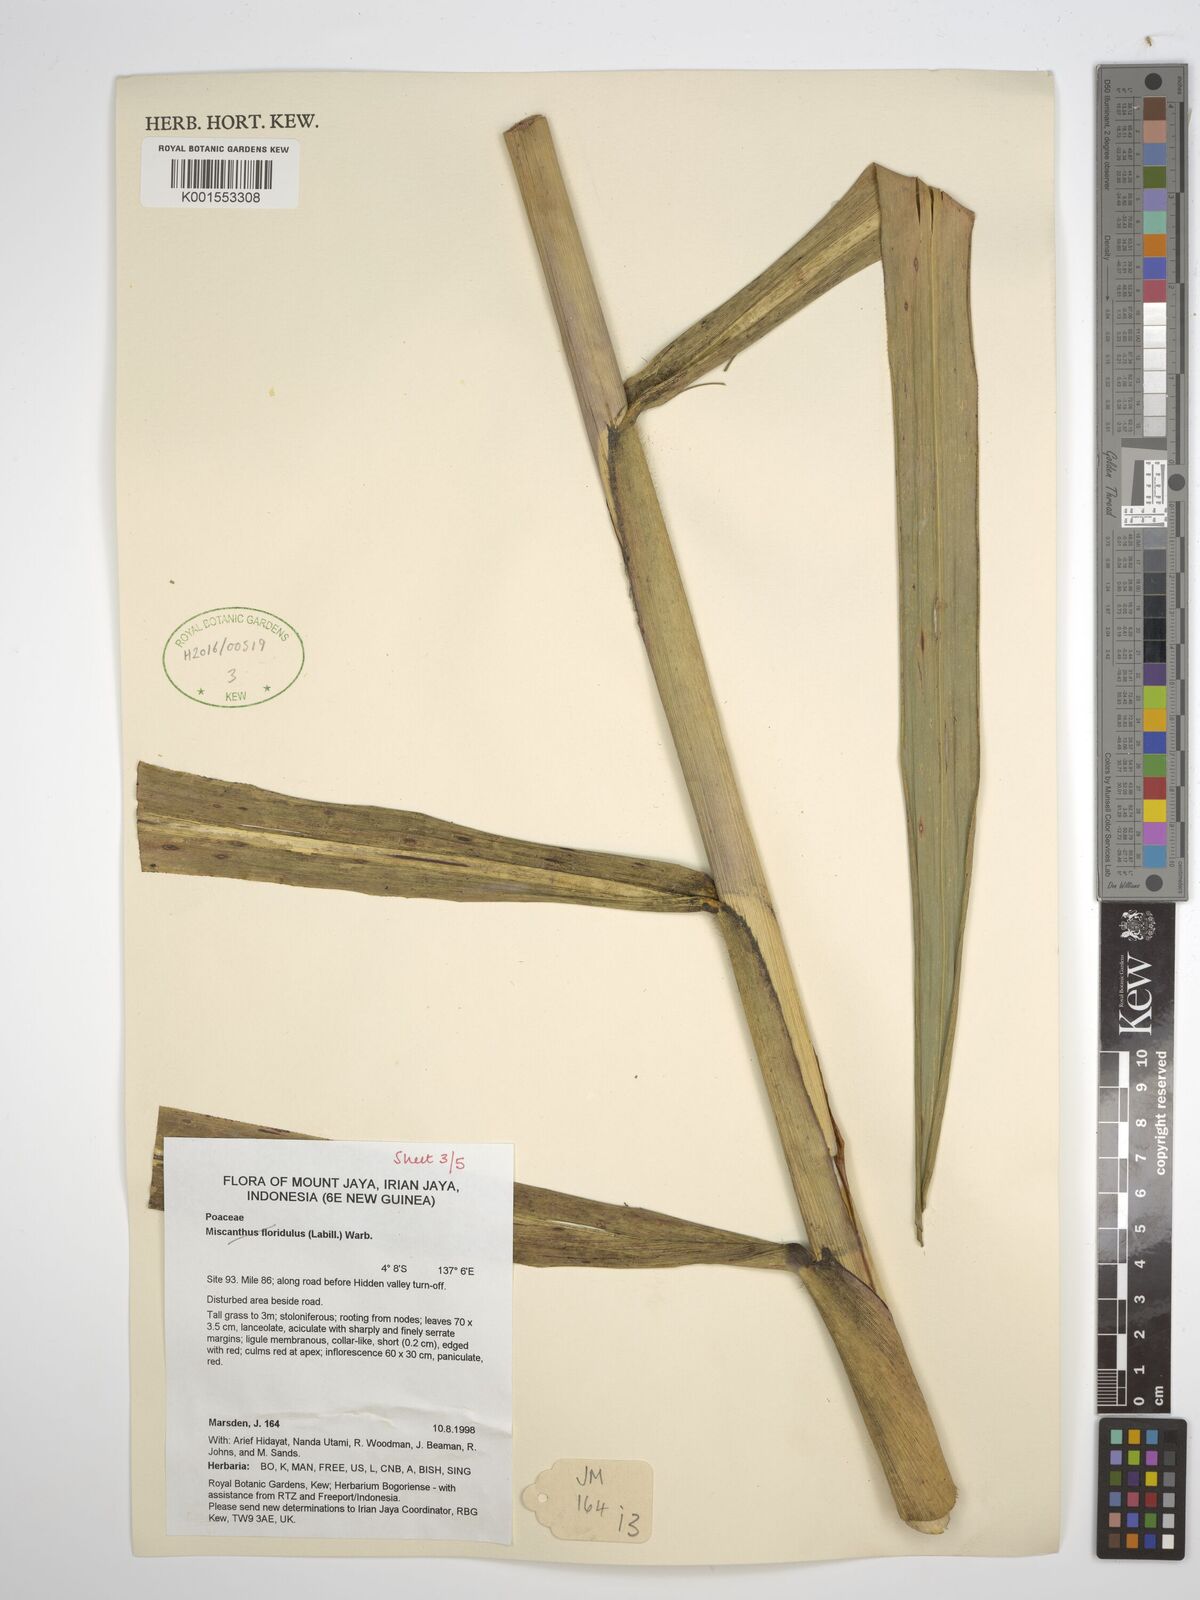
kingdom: Plantae
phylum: Tracheophyta
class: Liliopsida
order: Poales
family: Poaceae
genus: Saccharum
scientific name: Saccharum
